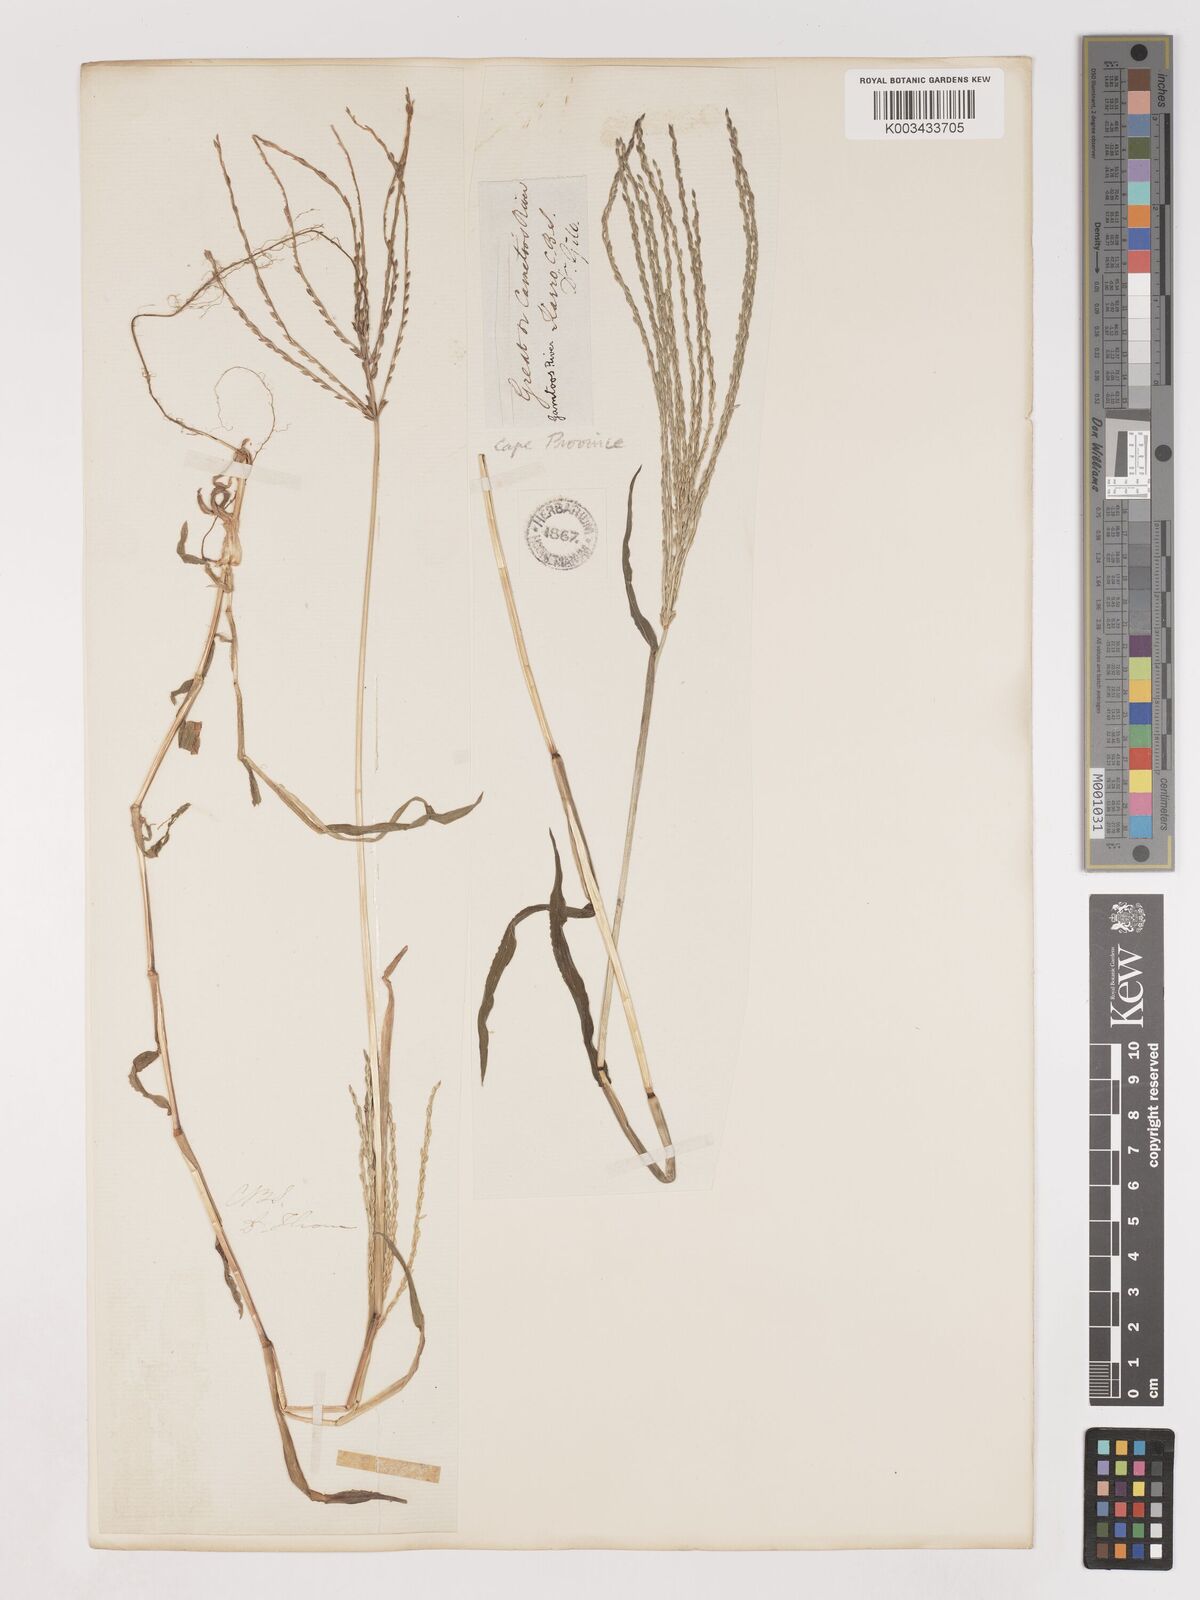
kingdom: Plantae
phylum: Tracheophyta
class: Liliopsida
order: Poales
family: Poaceae
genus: Digitaria
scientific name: Digitaria sanguinalis
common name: Hairy crabgrass
